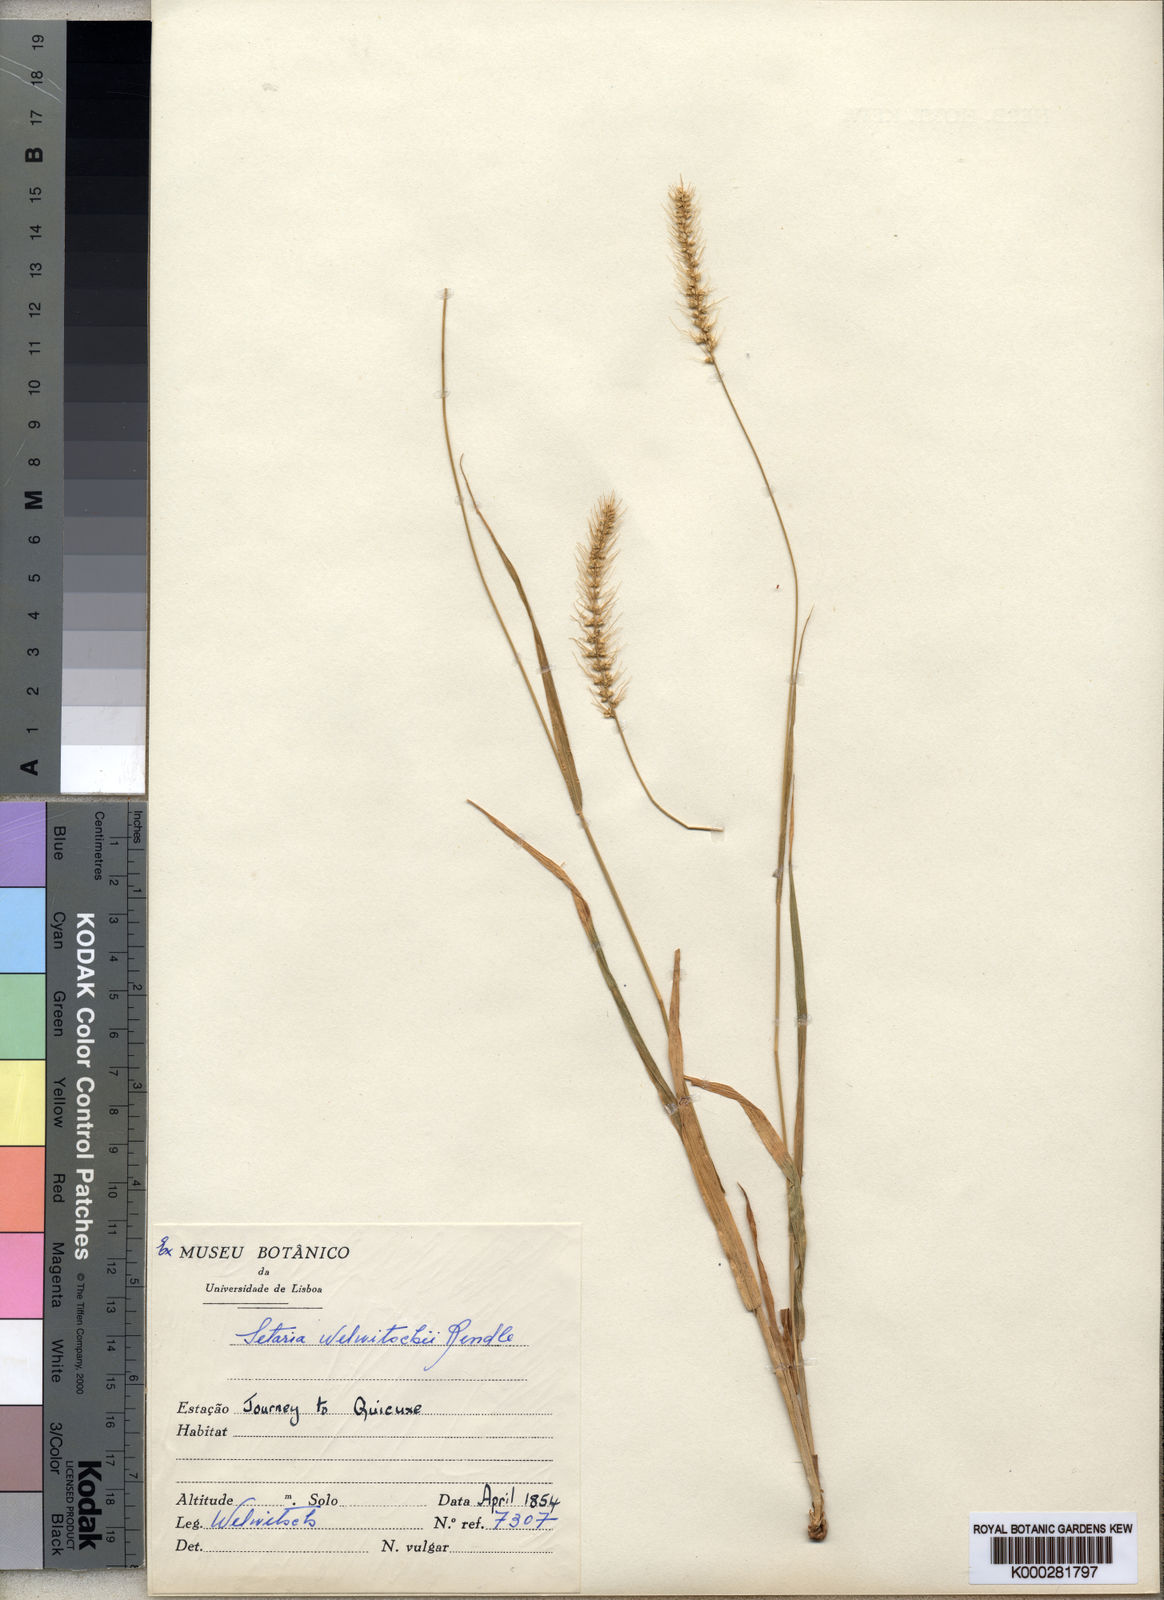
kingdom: Plantae
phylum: Tracheophyta
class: Liliopsida
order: Poales
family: Poaceae
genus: Setaria
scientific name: Setaria welwitschii
